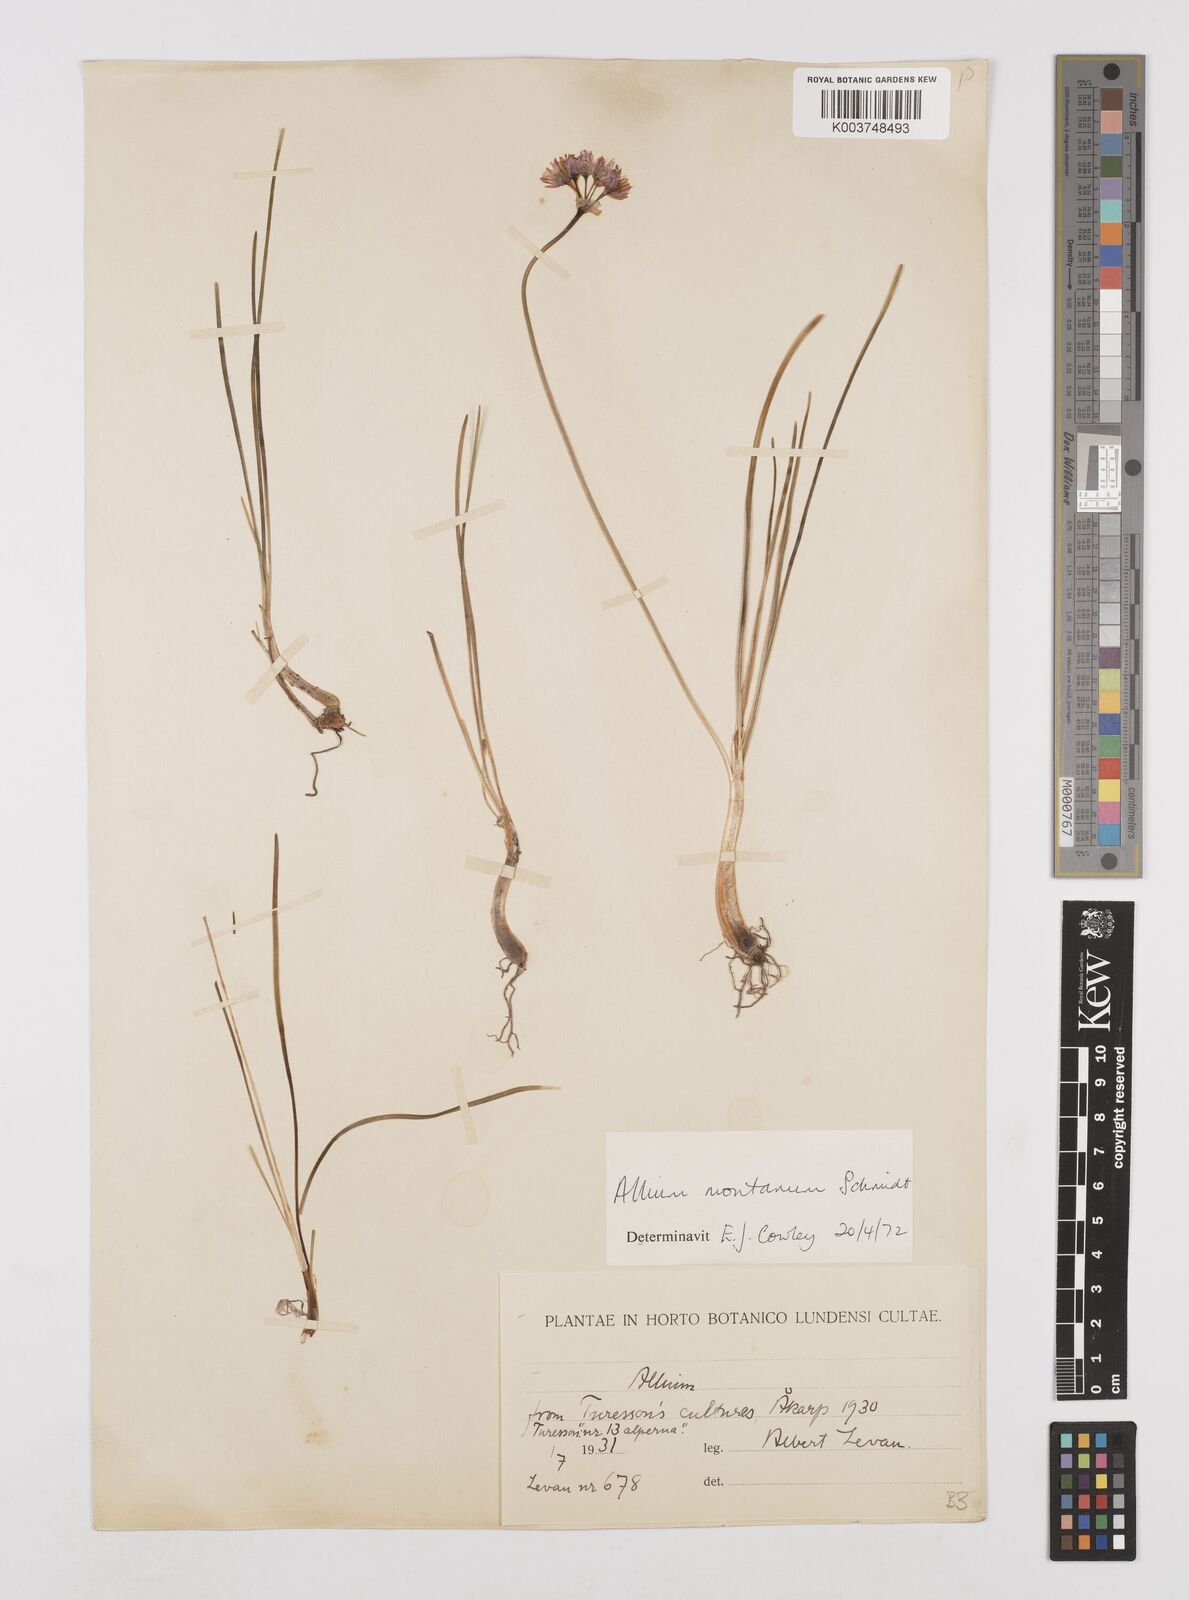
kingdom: Plantae
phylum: Tracheophyta
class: Liliopsida
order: Asparagales
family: Amaryllidaceae
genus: Allium
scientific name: Allium
